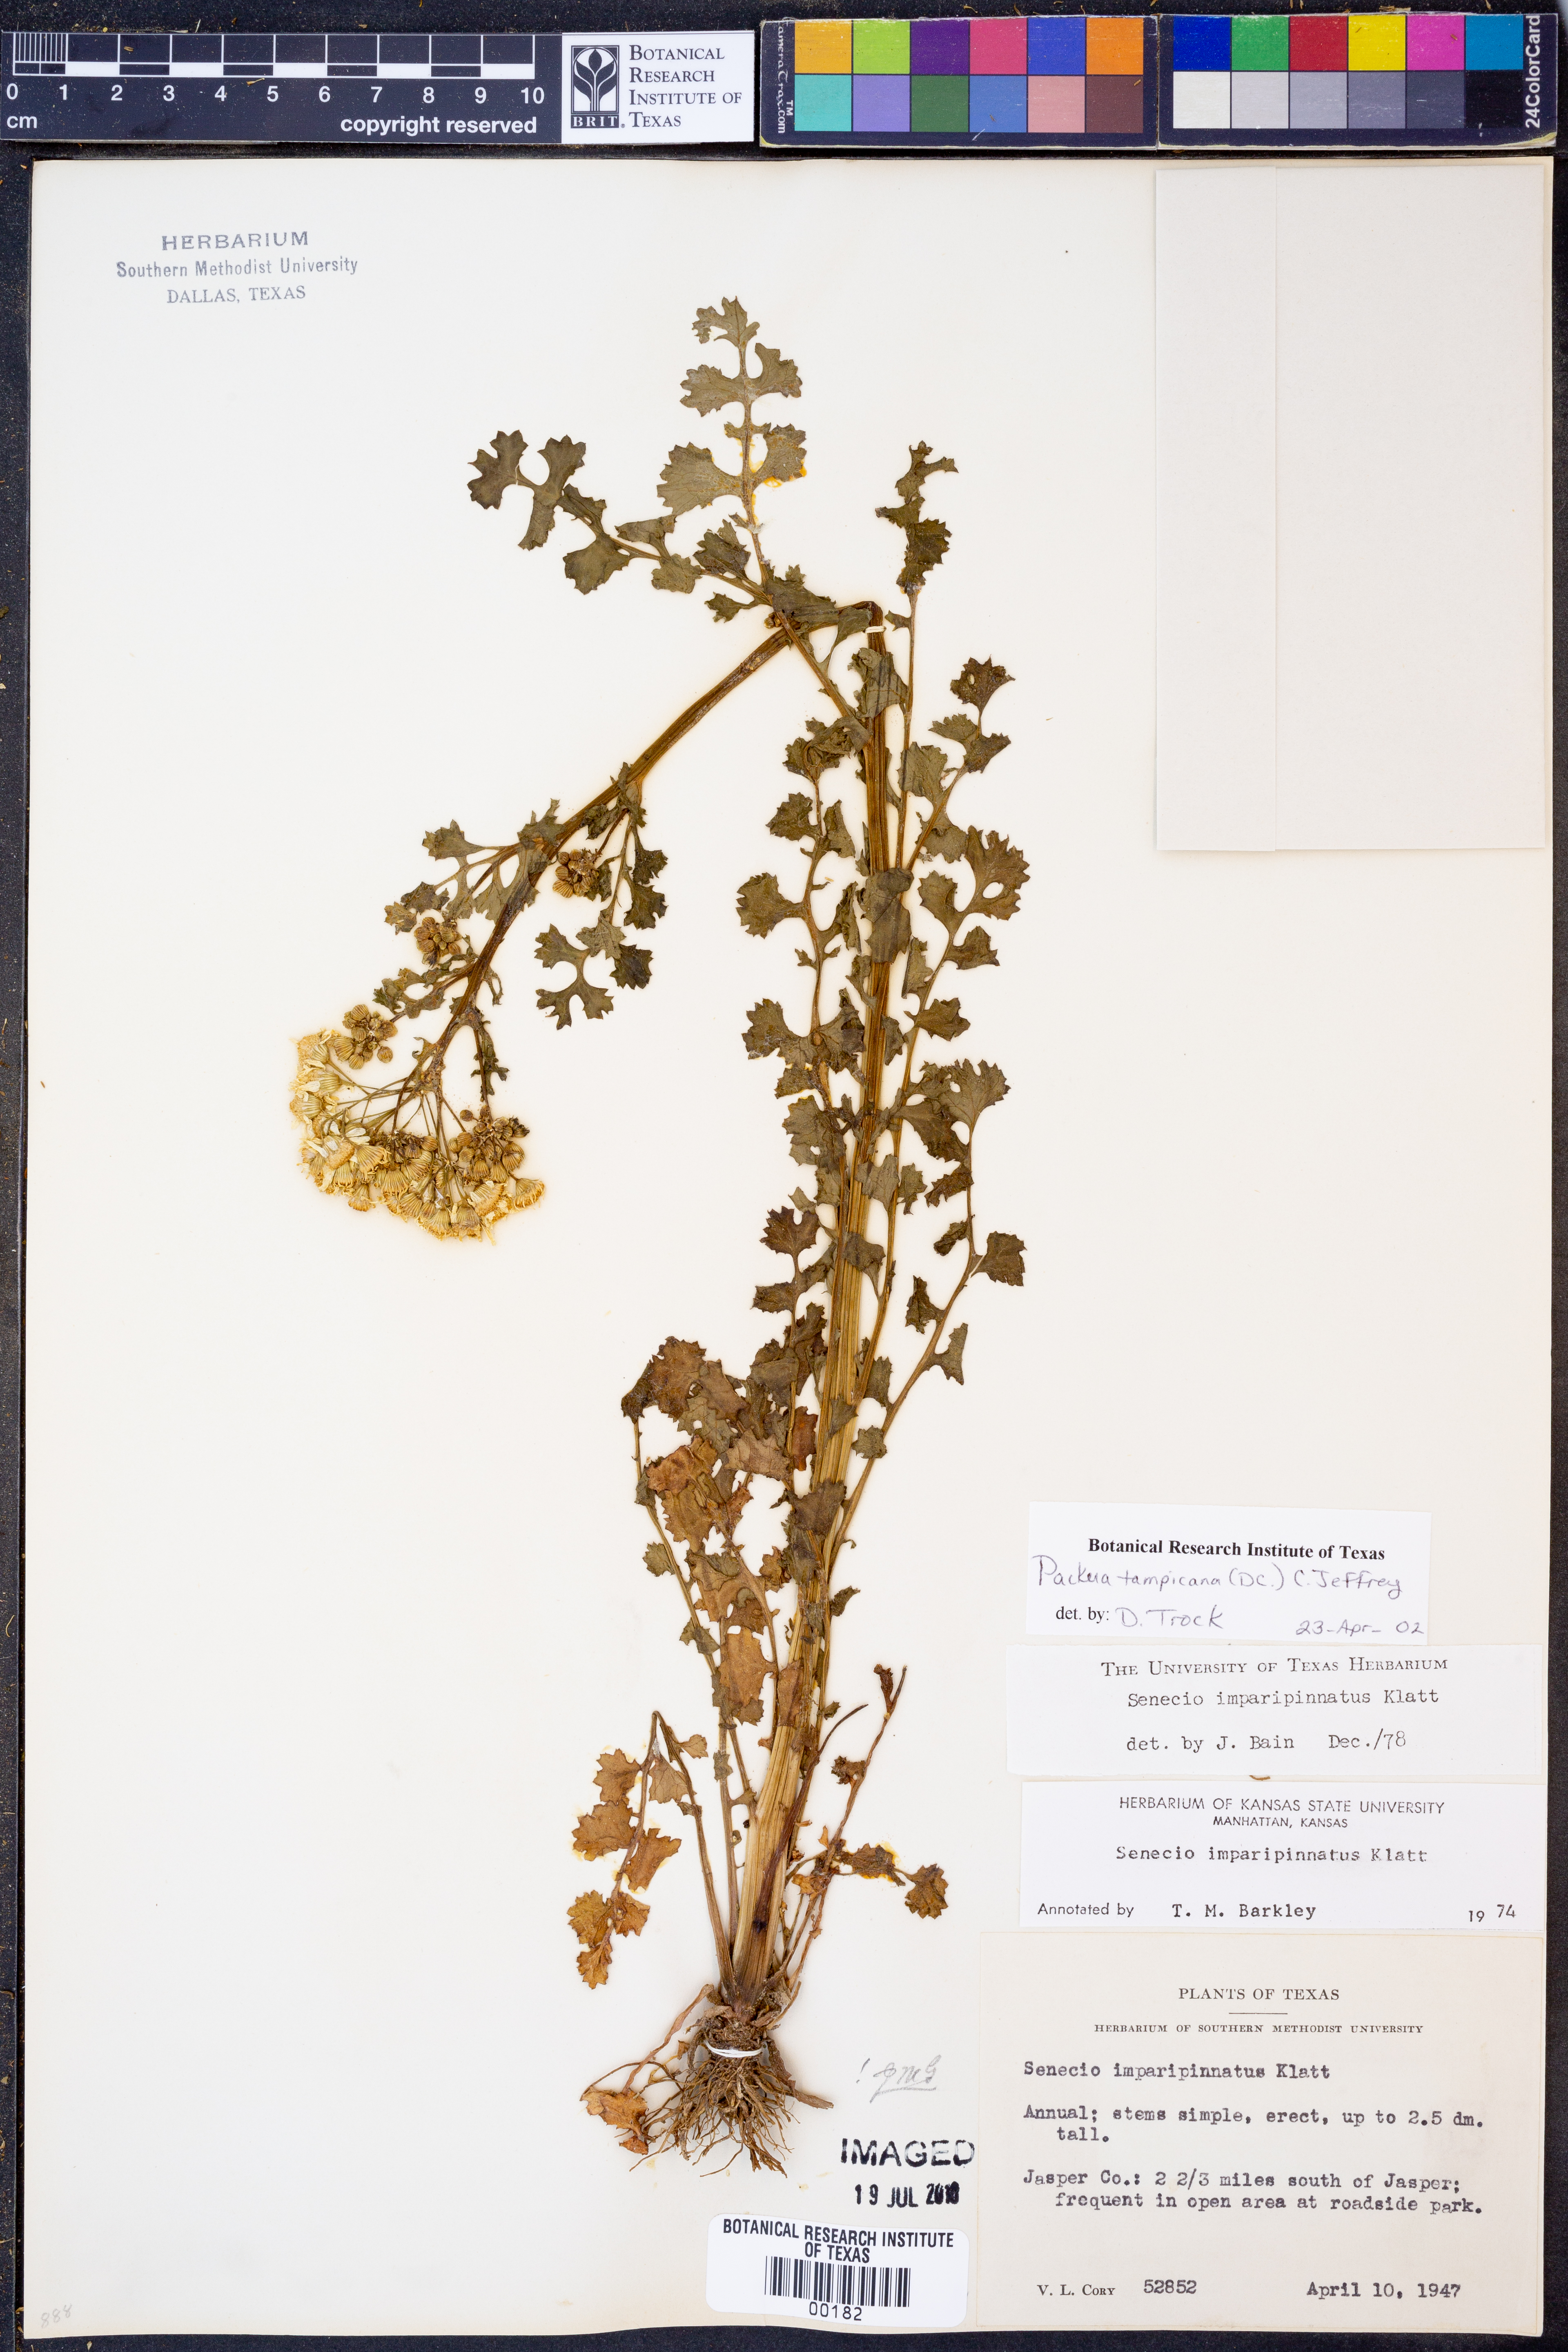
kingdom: Plantae
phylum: Tracheophyta
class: Magnoliopsida
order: Asterales
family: Asteraceae
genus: Packera
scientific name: Packera tampicana
